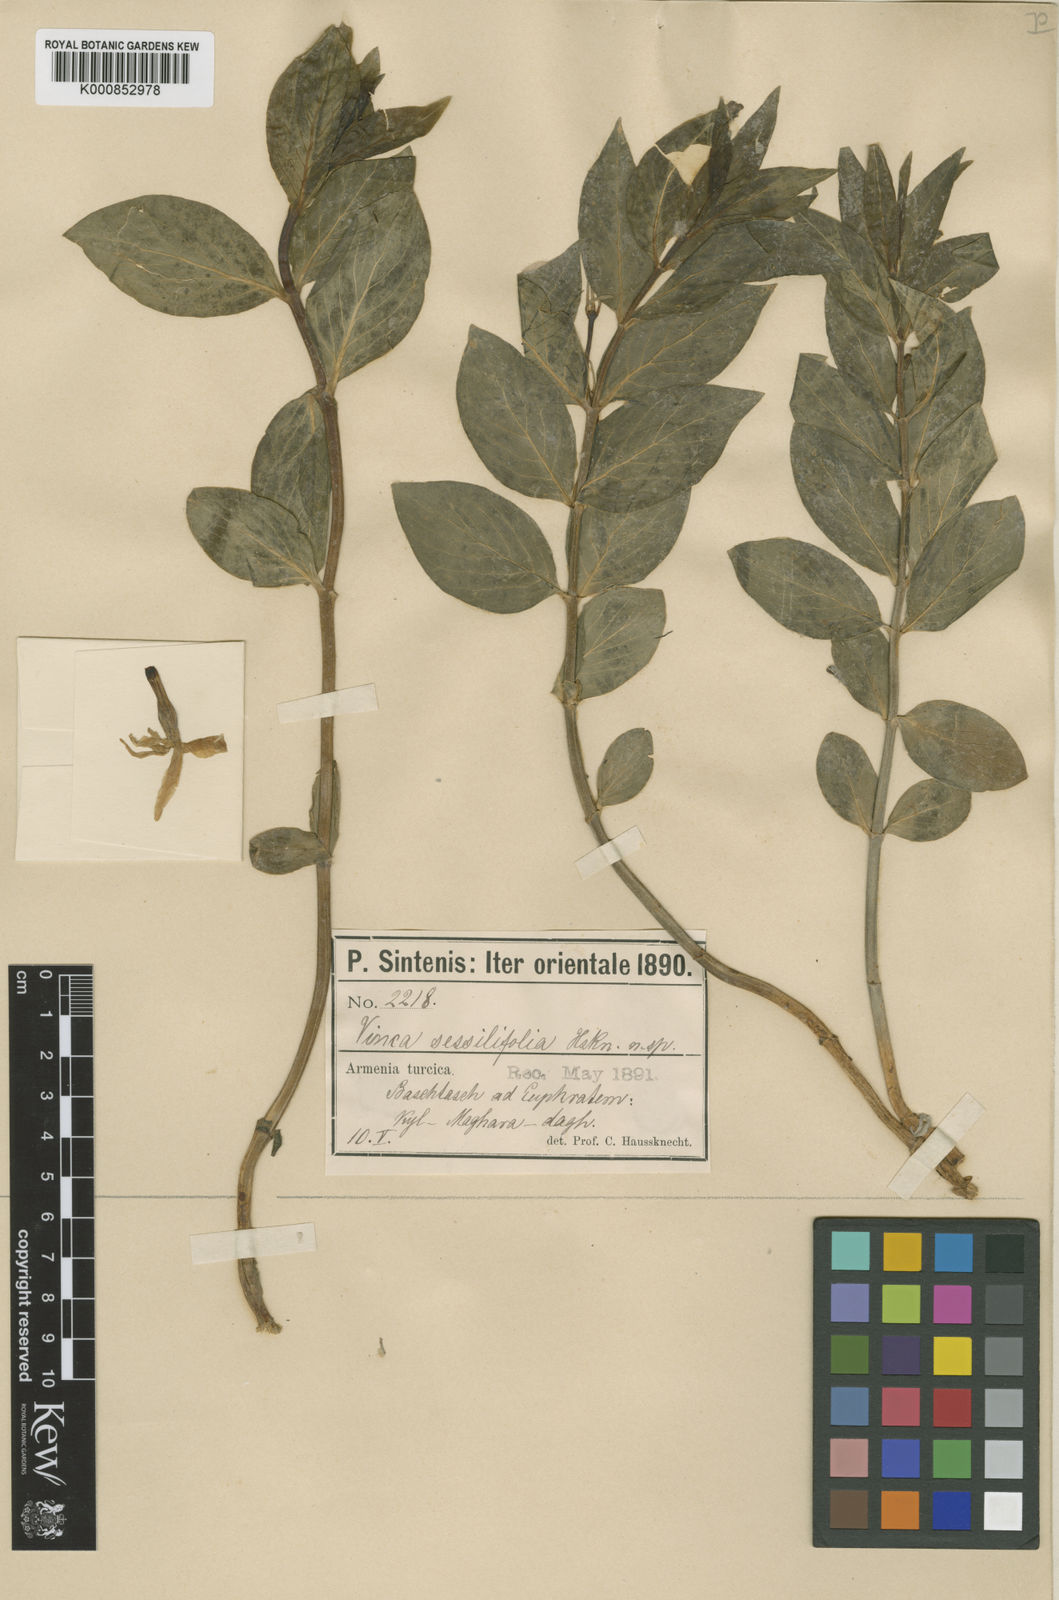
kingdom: Plantae
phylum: Tracheophyta
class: Magnoliopsida
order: Gentianales
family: Apocynaceae
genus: Vinca
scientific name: Vinca herbacea
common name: Herbaceous periwinkle
